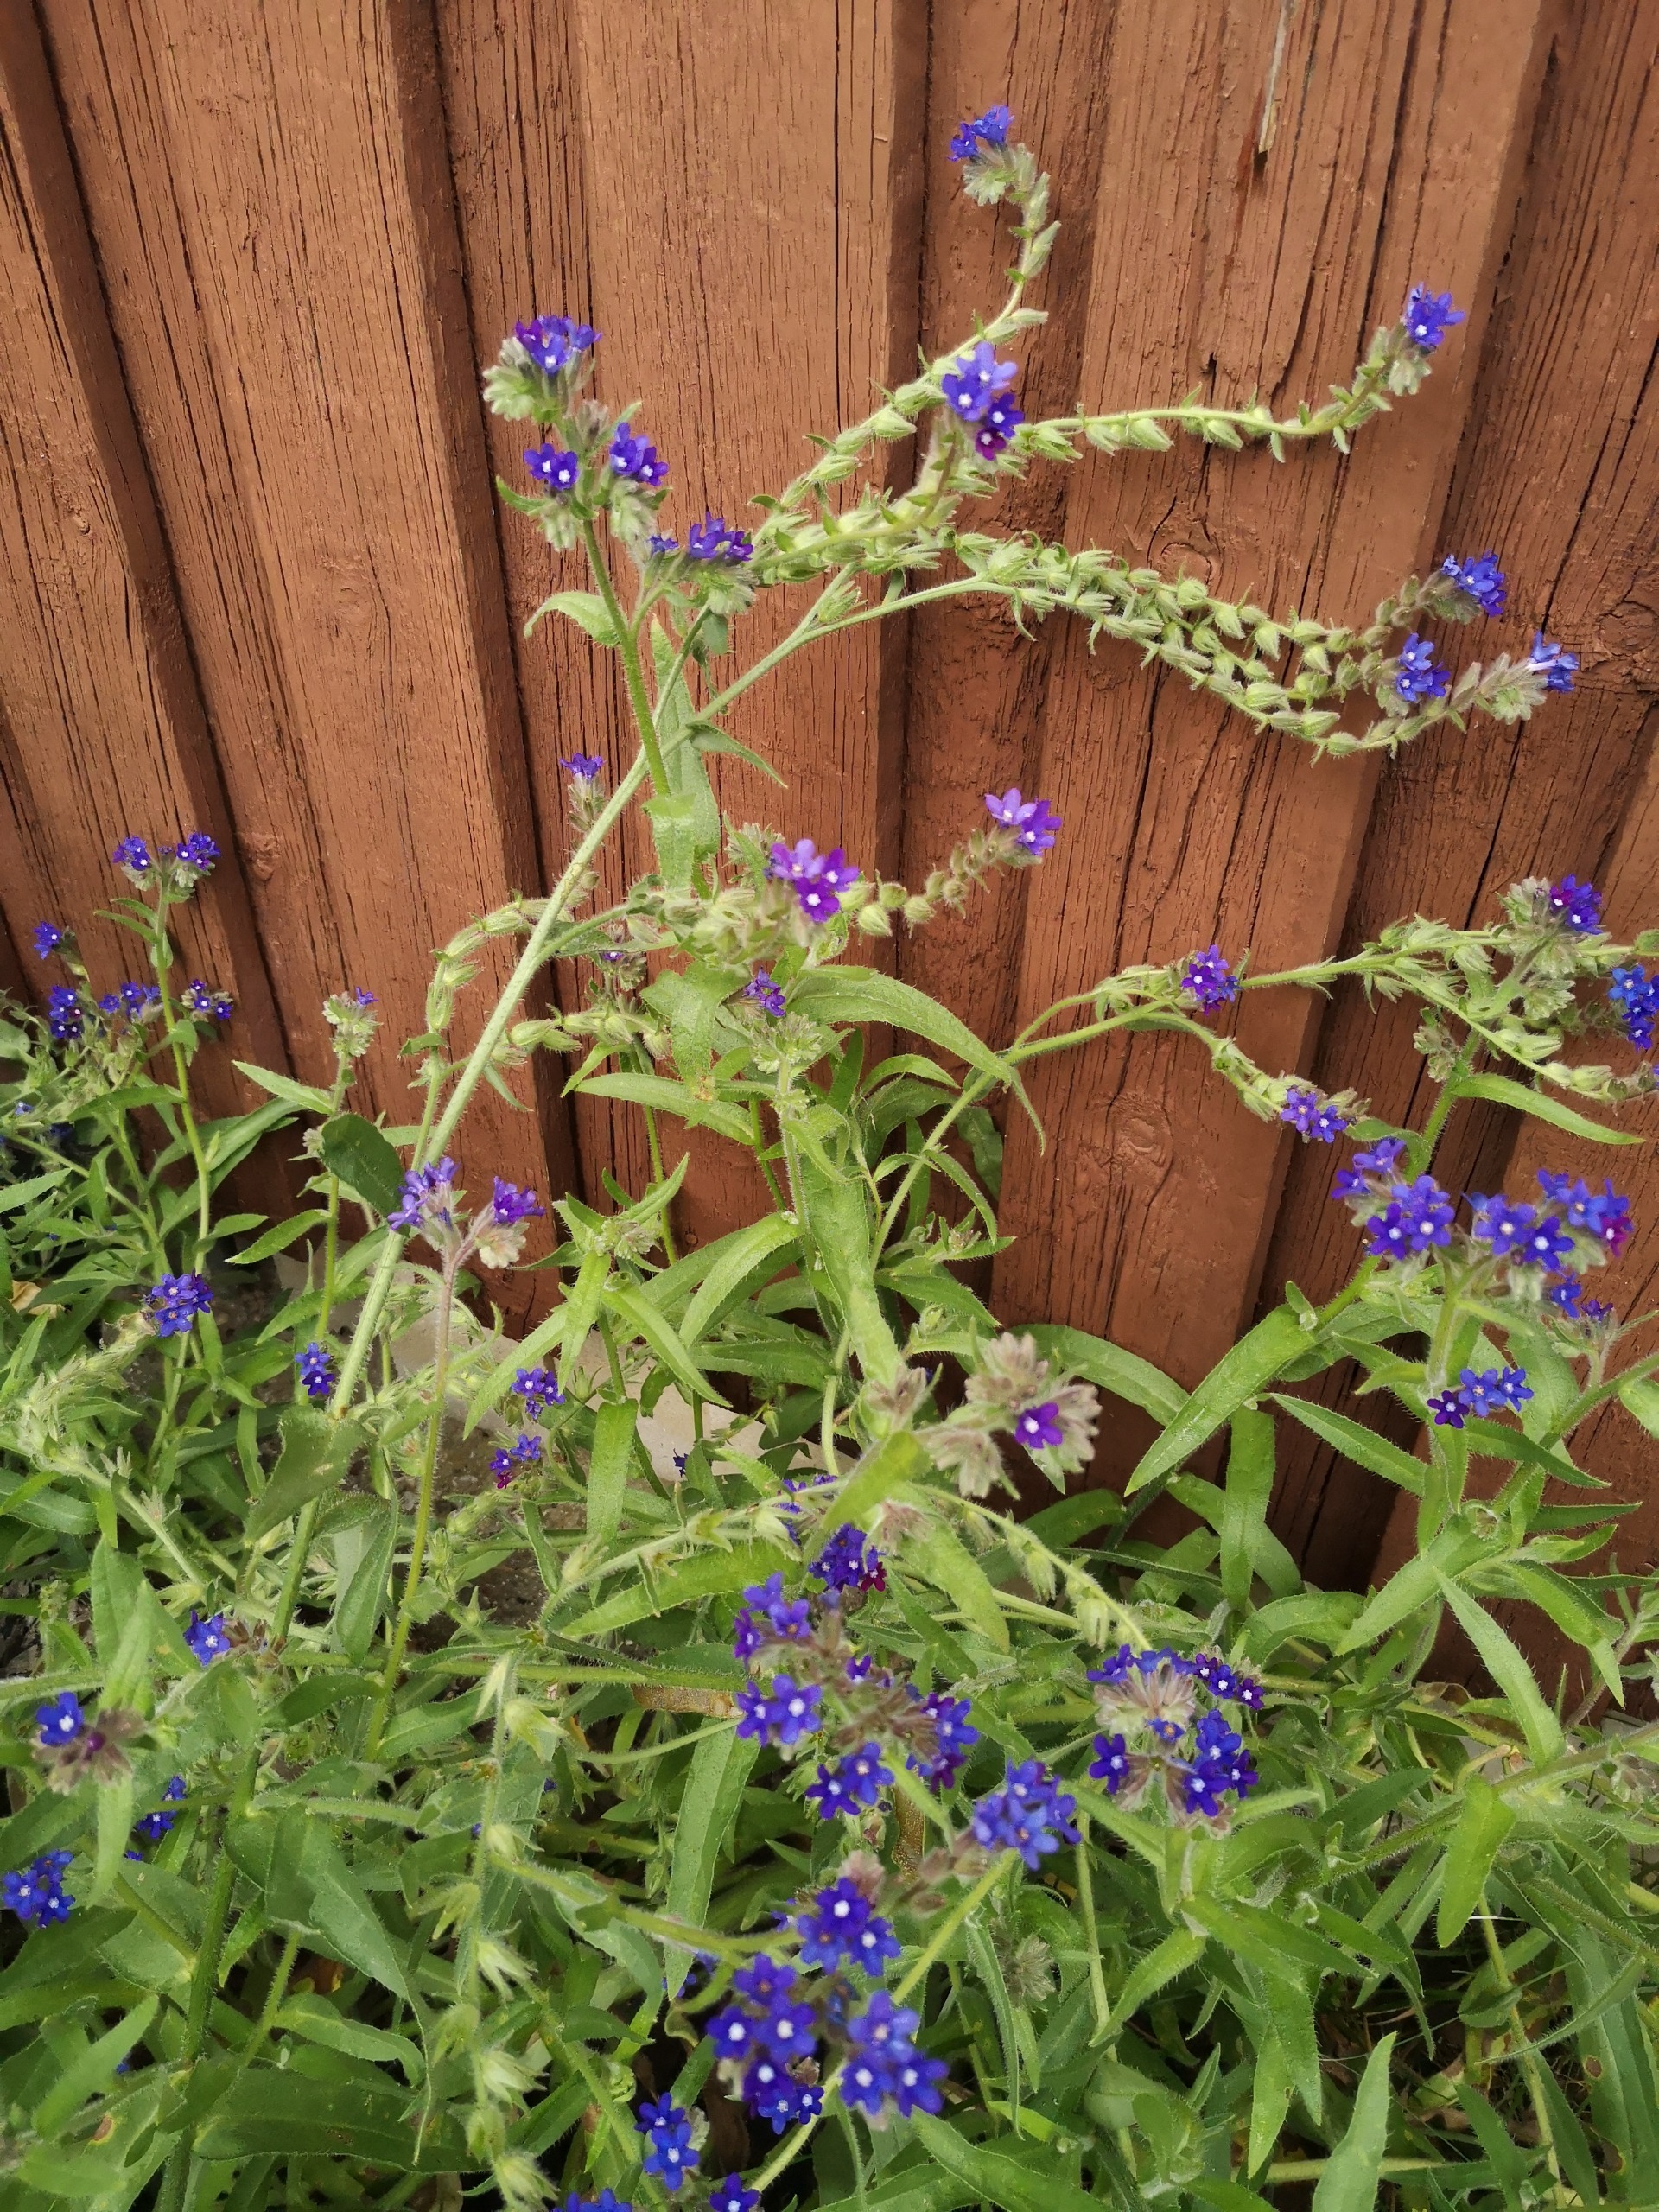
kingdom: Plantae
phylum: Tracheophyta
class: Magnoliopsida
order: Boraginales
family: Boraginaceae
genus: Anchusa
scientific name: Anchusa officinalis
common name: Læge-oksetunge
